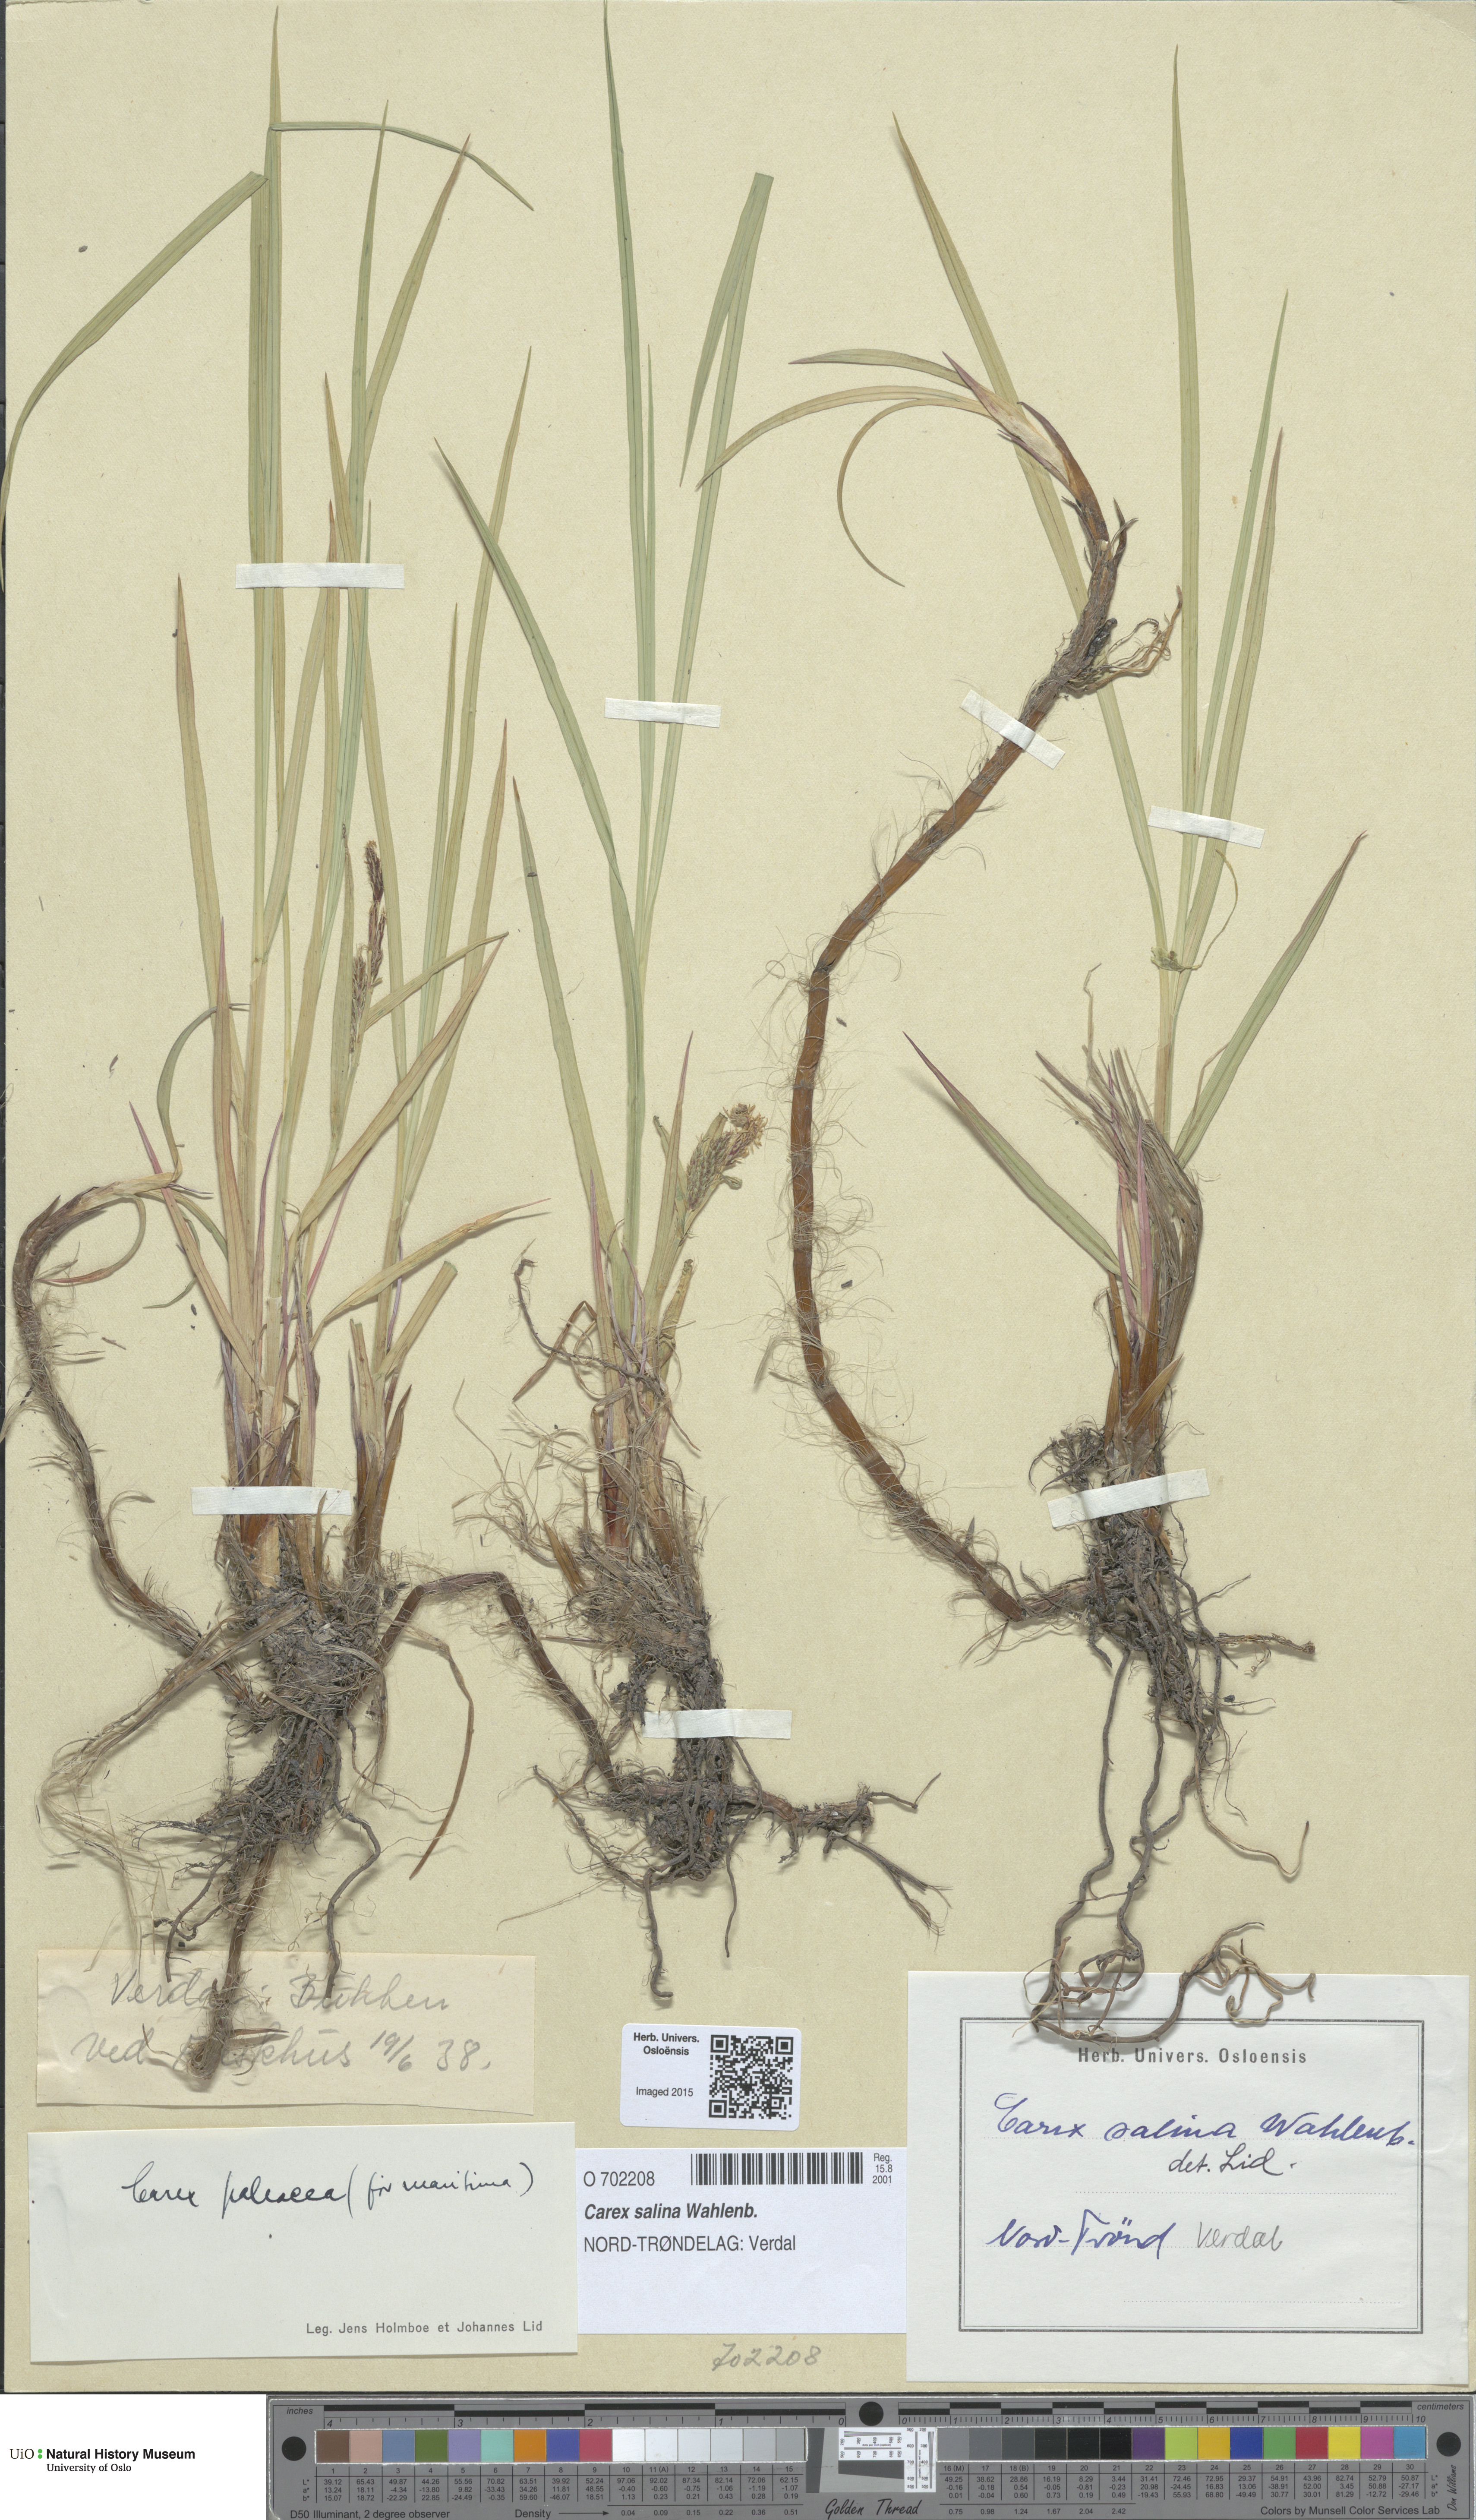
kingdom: Plantae
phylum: Tracheophyta
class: Liliopsida
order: Poales
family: Cyperaceae
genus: Carex
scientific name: Carex salina
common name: Saltmarsh sedge
